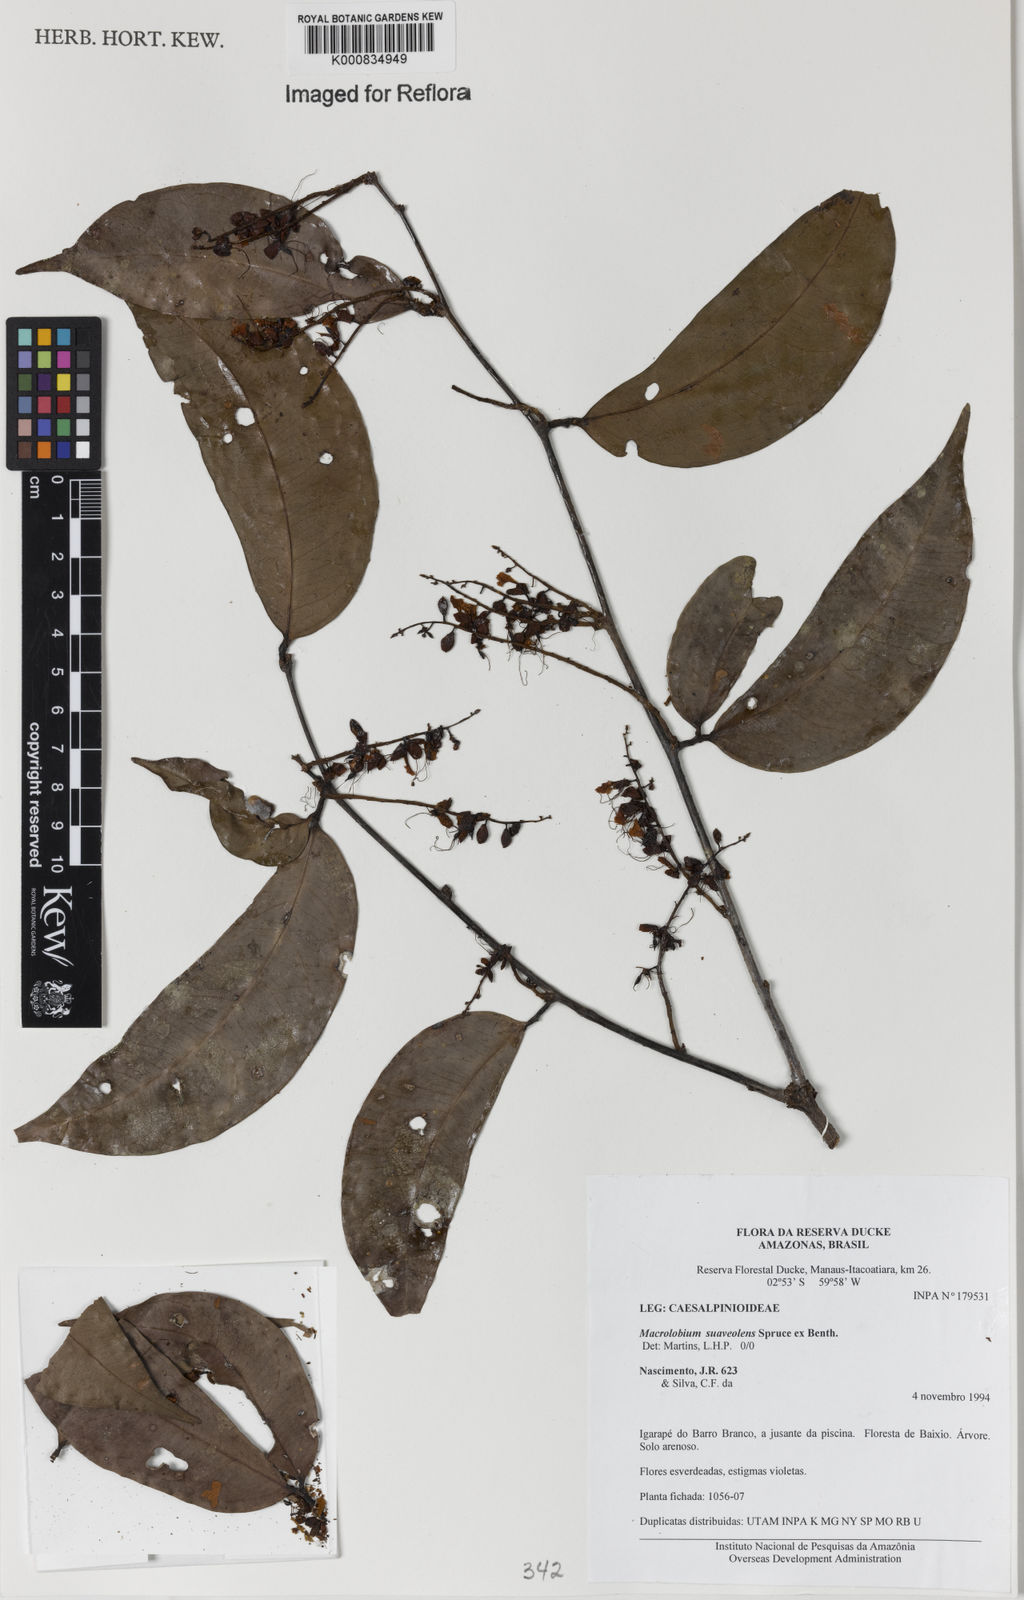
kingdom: Plantae
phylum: Tracheophyta
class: Magnoliopsida
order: Fabales
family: Fabaceae
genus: Macrolobium
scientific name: Macrolobium suaveolens
